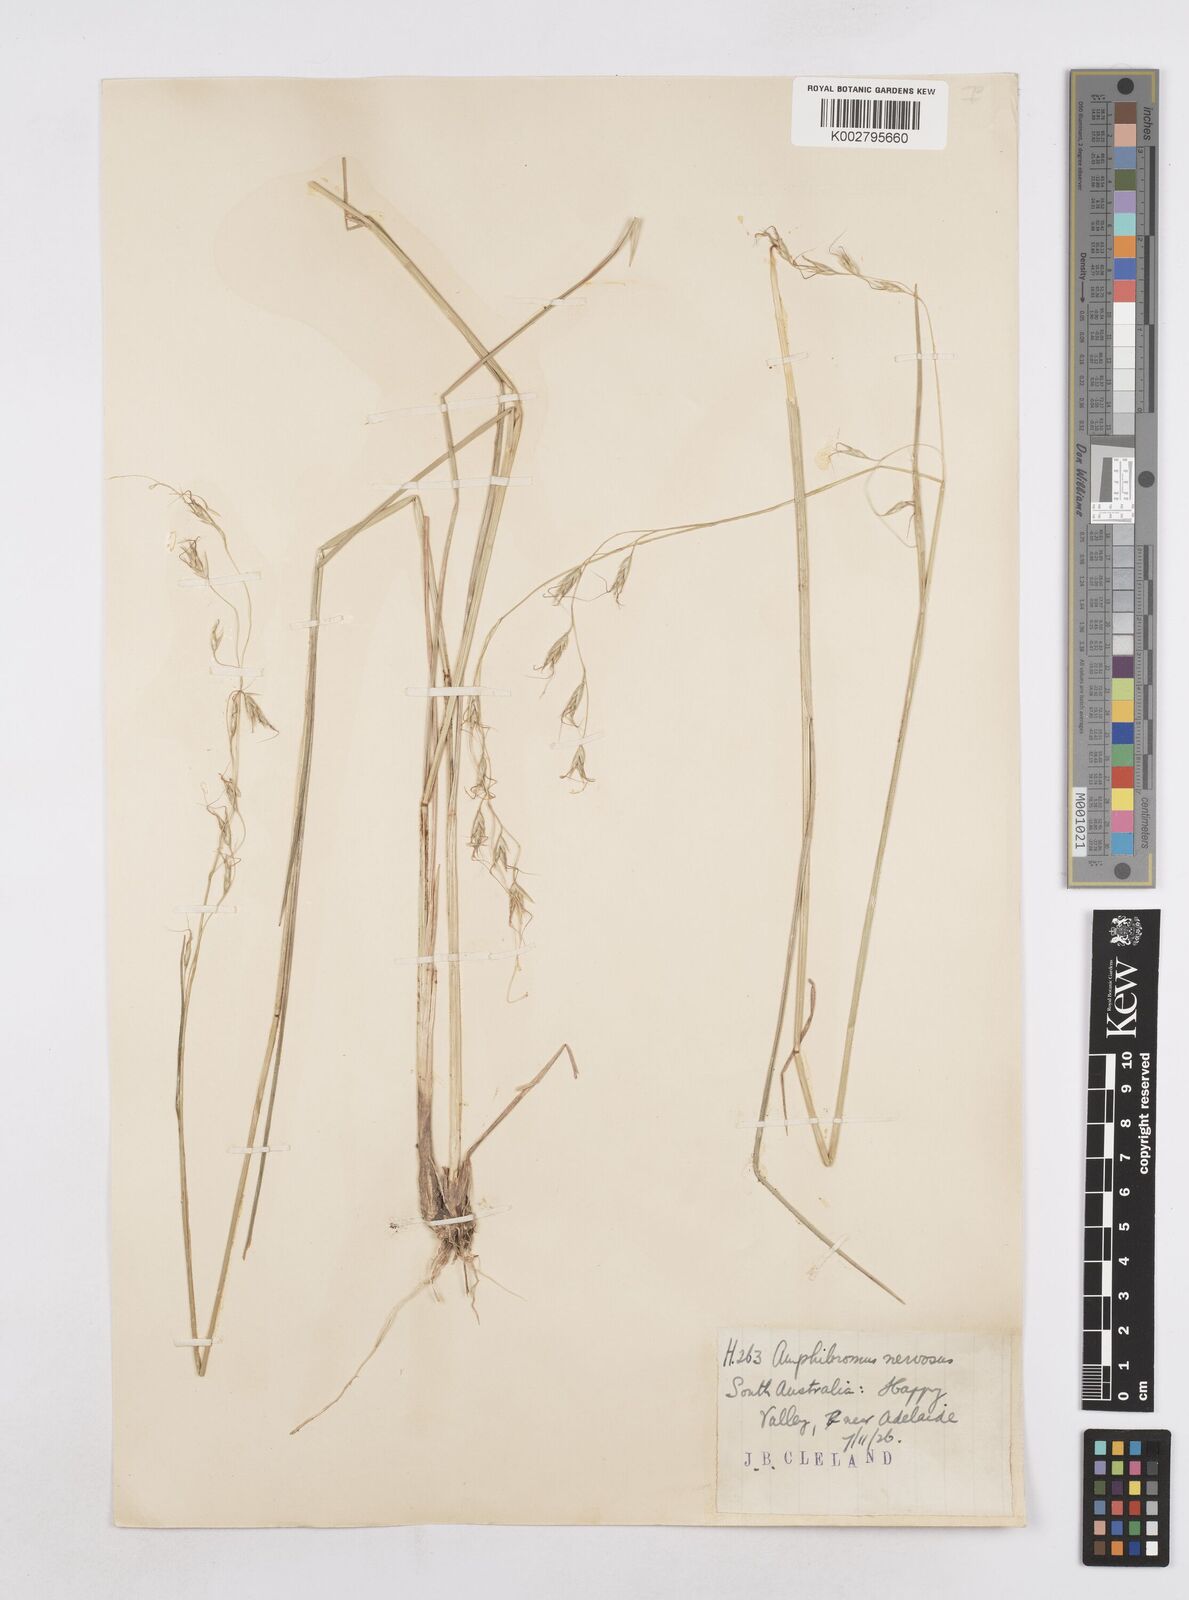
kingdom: Plantae
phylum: Tracheophyta
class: Liliopsida
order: Poales
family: Poaceae
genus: Amphibromus
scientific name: Amphibromus neesii
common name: Australian wallaby grass
